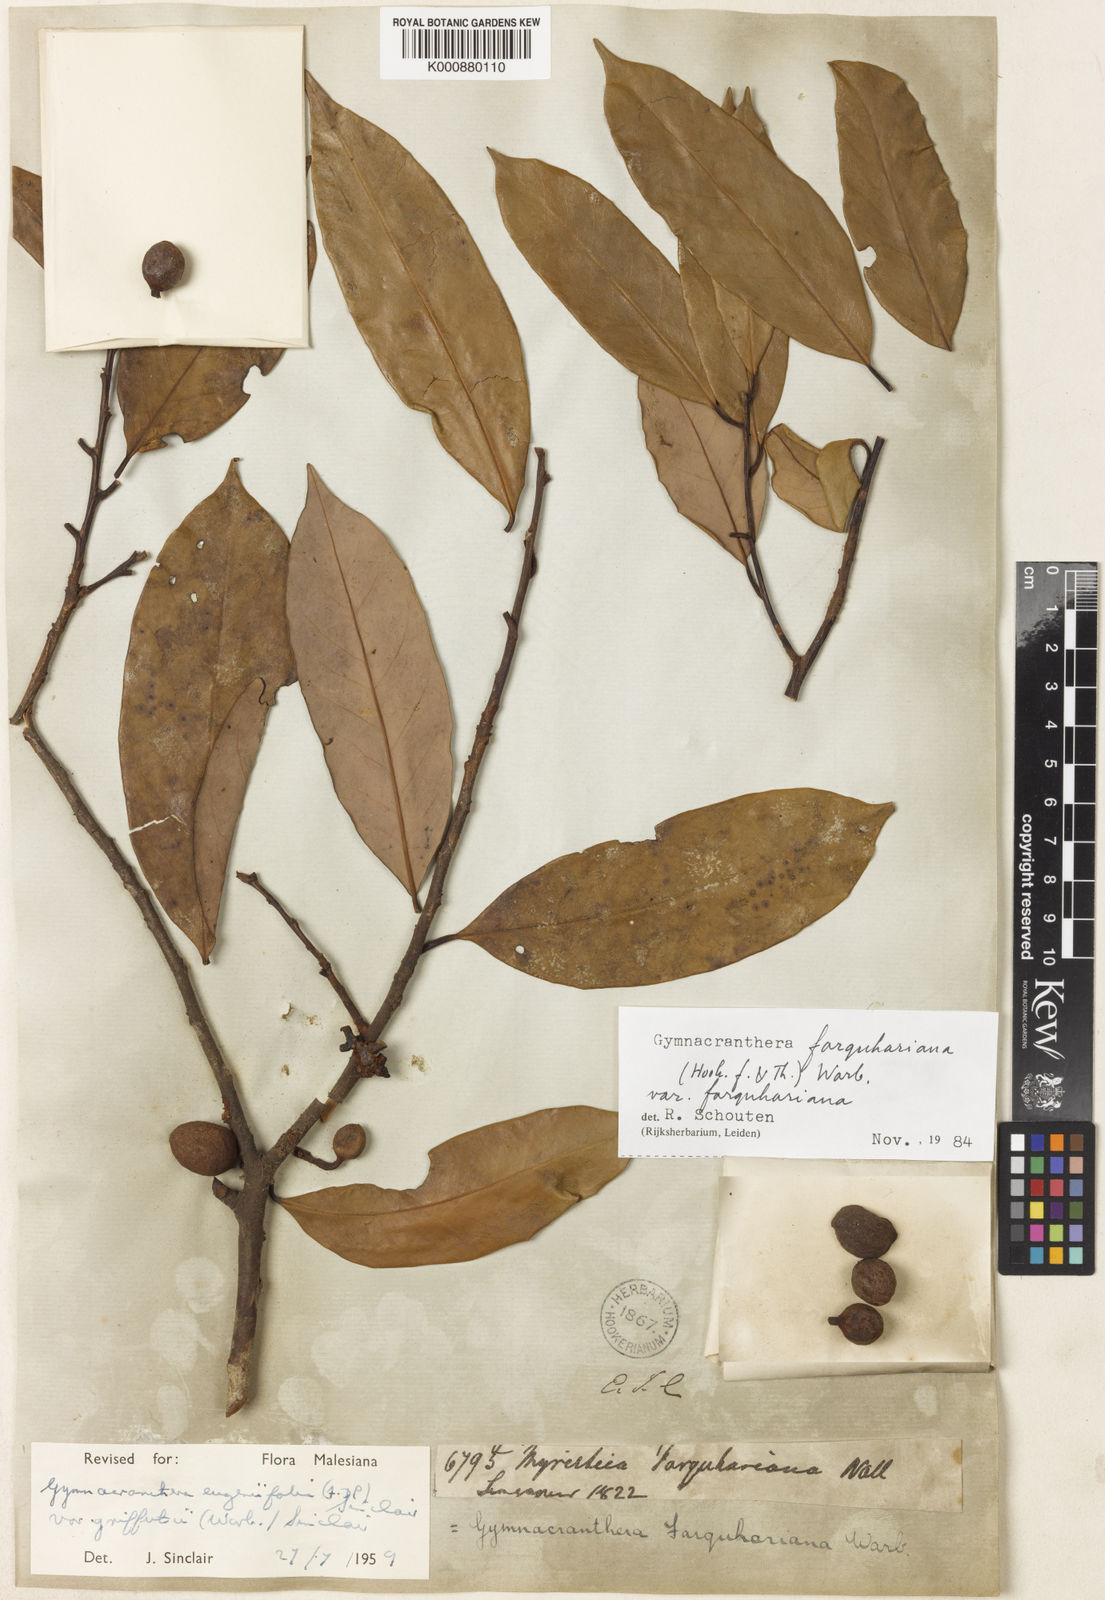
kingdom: Plantae
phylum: Tracheophyta
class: Magnoliopsida
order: Magnoliales
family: Myristicaceae
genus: Gymnacranthera
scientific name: Gymnacranthera farquhariana
